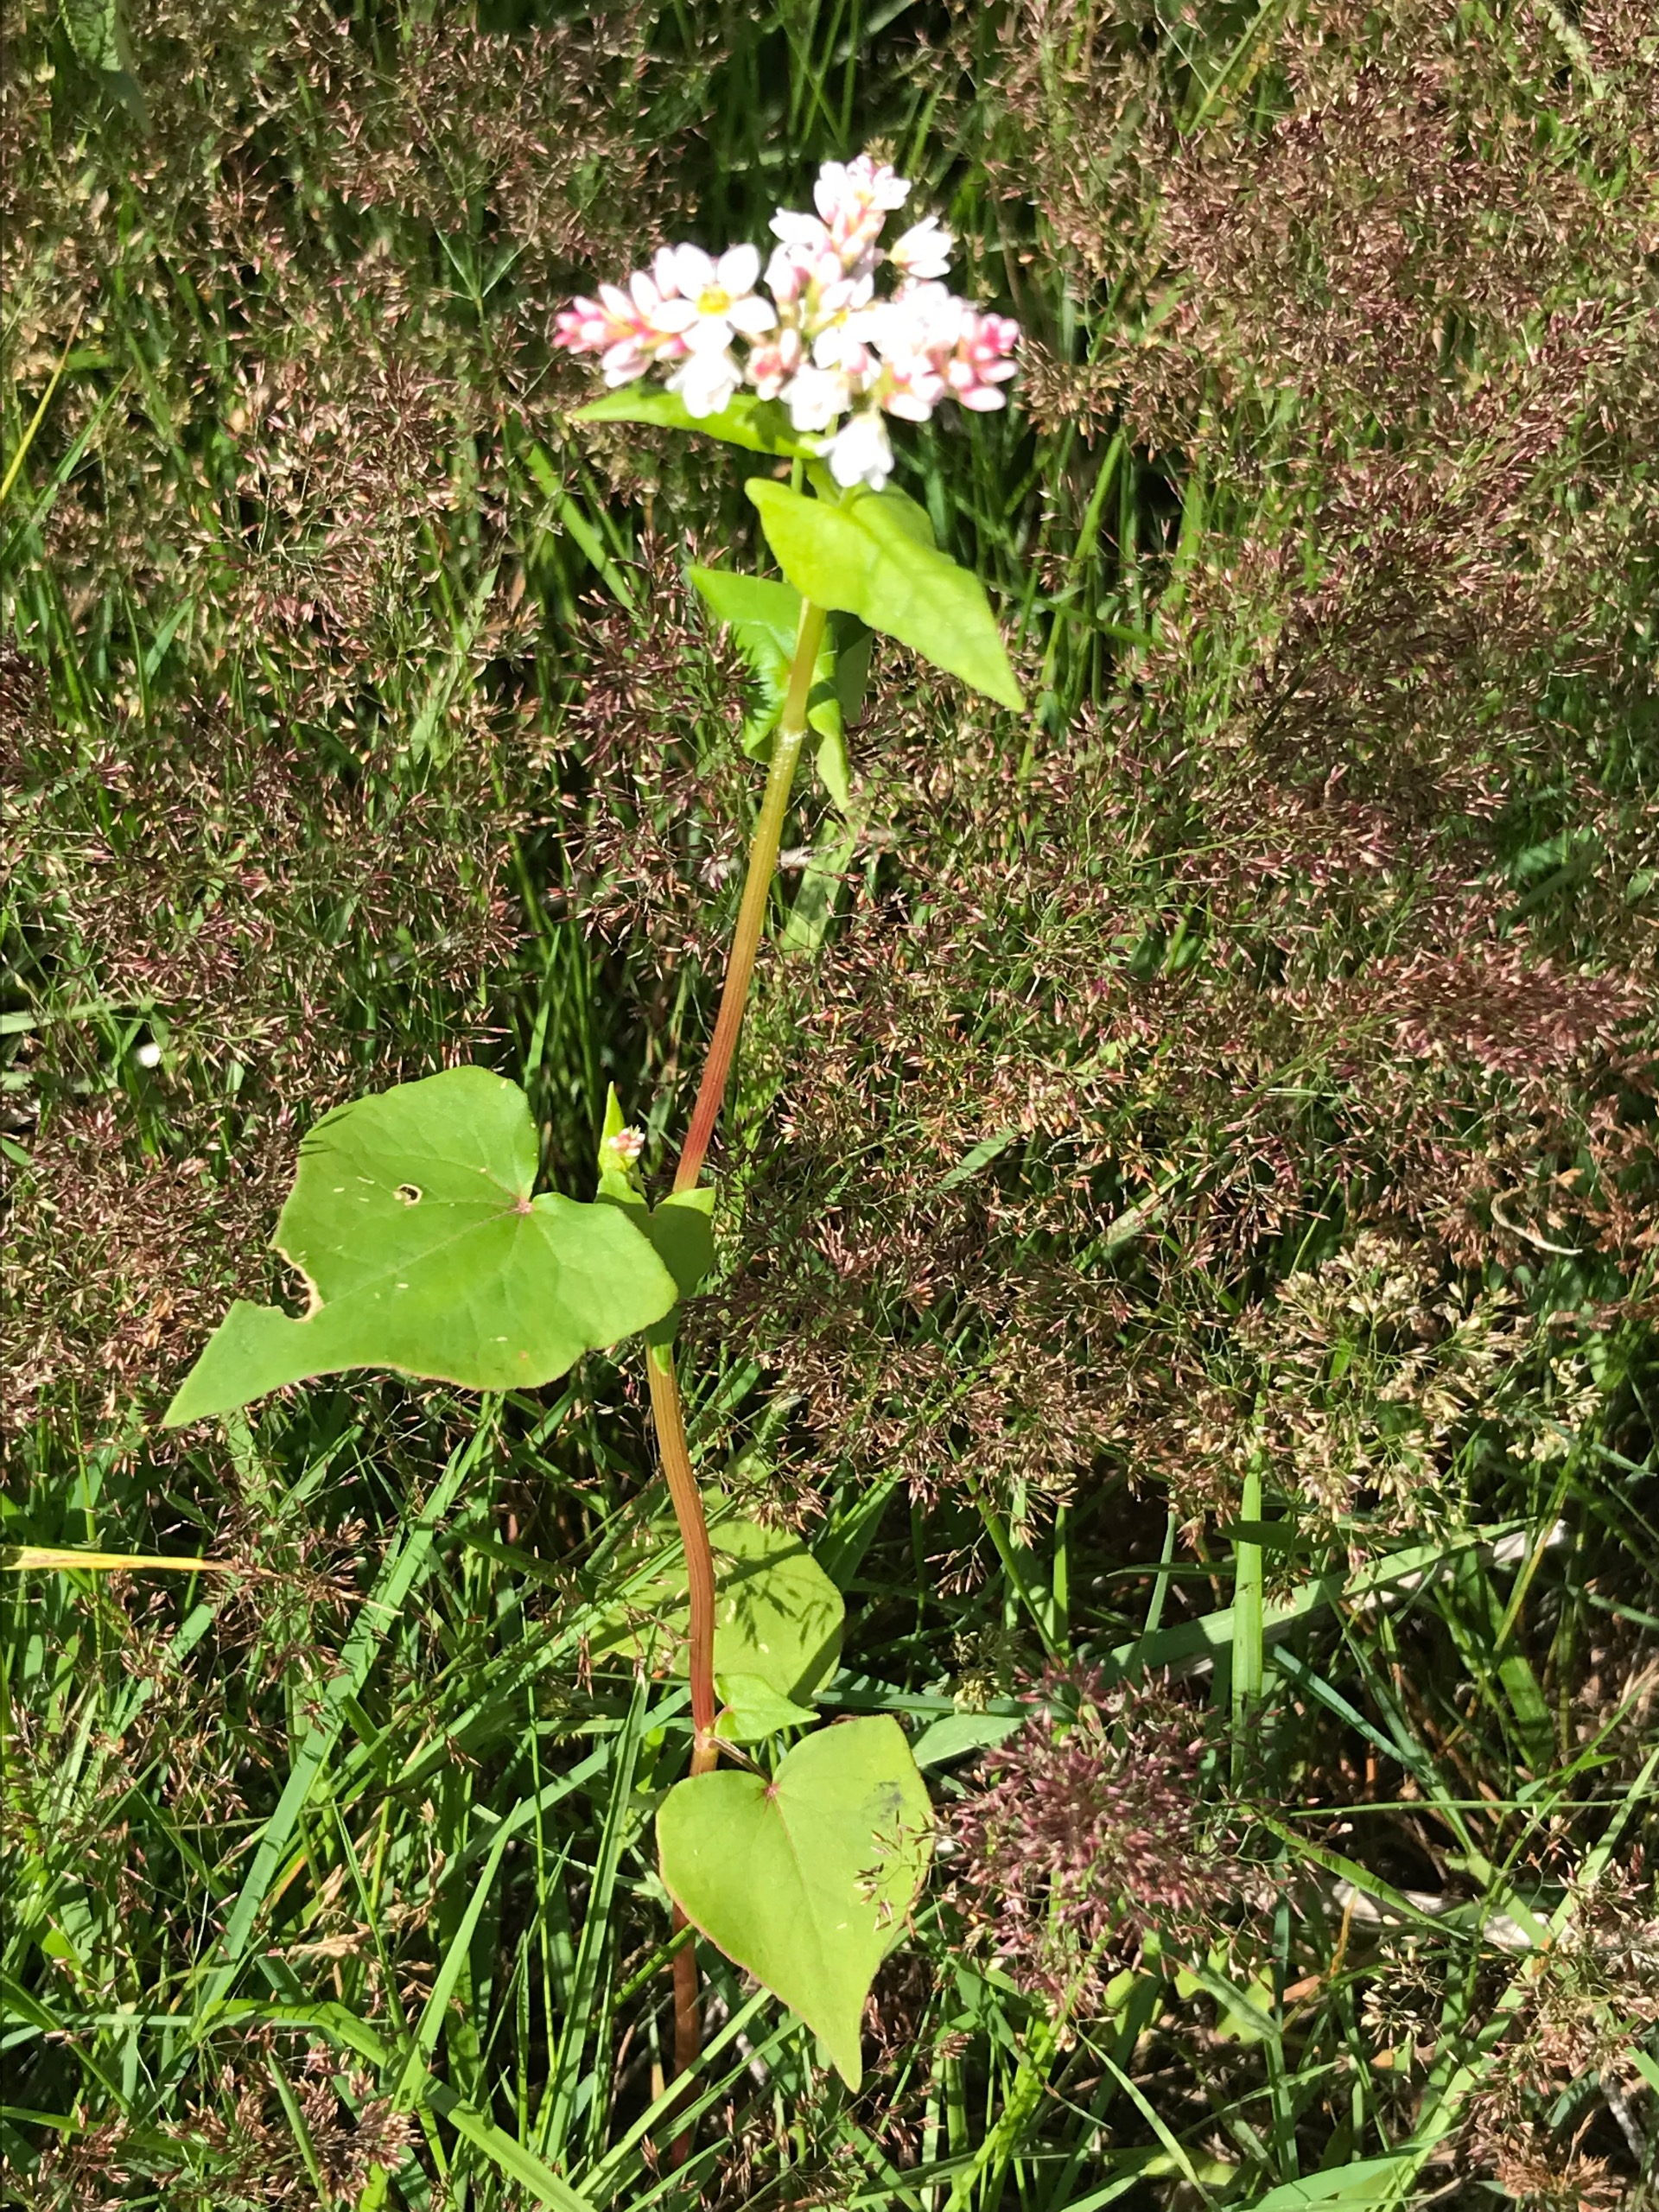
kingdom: Plantae
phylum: Tracheophyta
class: Magnoliopsida
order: Caryophyllales
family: Polygonaceae
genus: Fagopyrum
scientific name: Fagopyrum esculentum
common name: Almindelig boghvede
